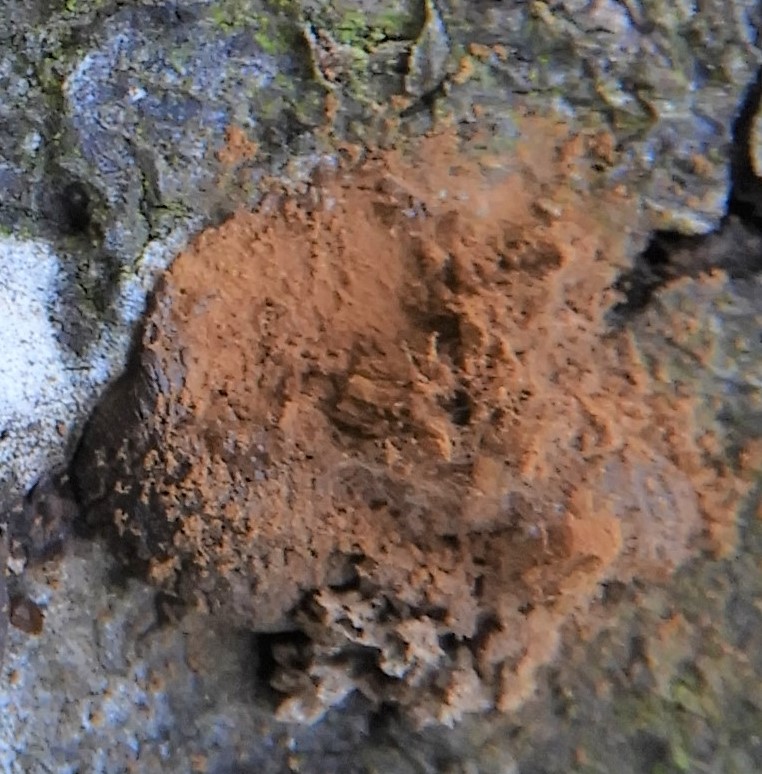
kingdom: Protozoa
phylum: Mycetozoa
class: Myxomycetes
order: Trichiales
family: Dictydiaethaliaceae
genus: Dictydiaethalium
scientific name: Dictydiaethalium plumbeum
